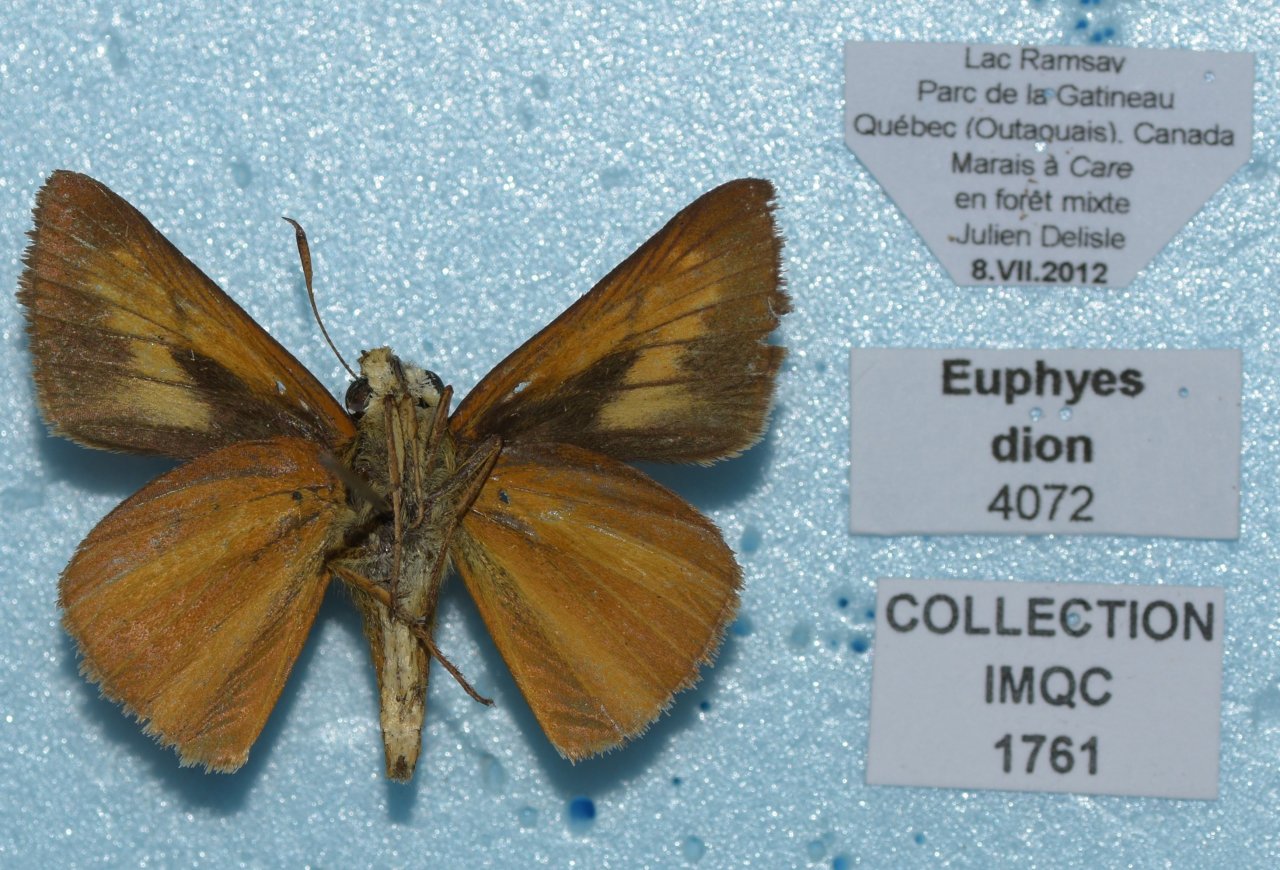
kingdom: Animalia
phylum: Arthropoda
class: Insecta
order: Lepidoptera
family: Hesperiidae
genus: Euphyes
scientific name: Euphyes dion
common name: Dion Skipper
